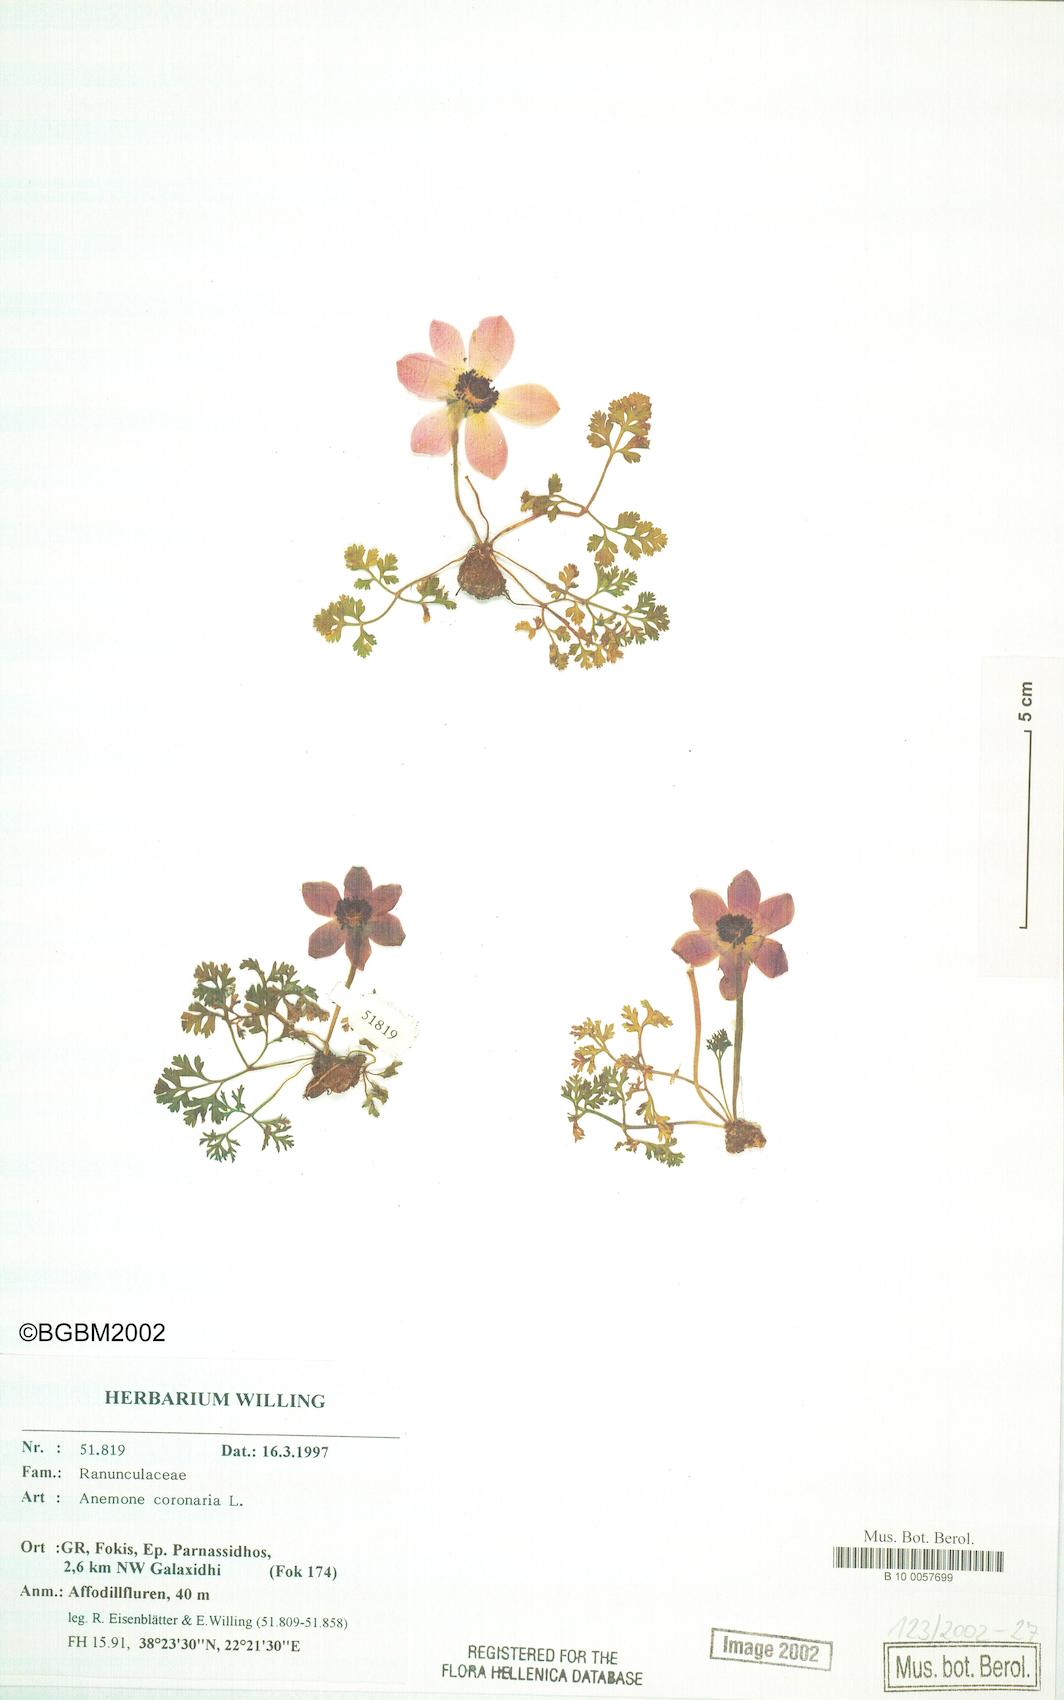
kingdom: Plantae
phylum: Tracheophyta
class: Magnoliopsida
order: Ranunculales
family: Ranunculaceae
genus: Anemone
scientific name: Anemone coronaria
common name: Poppy anemone
